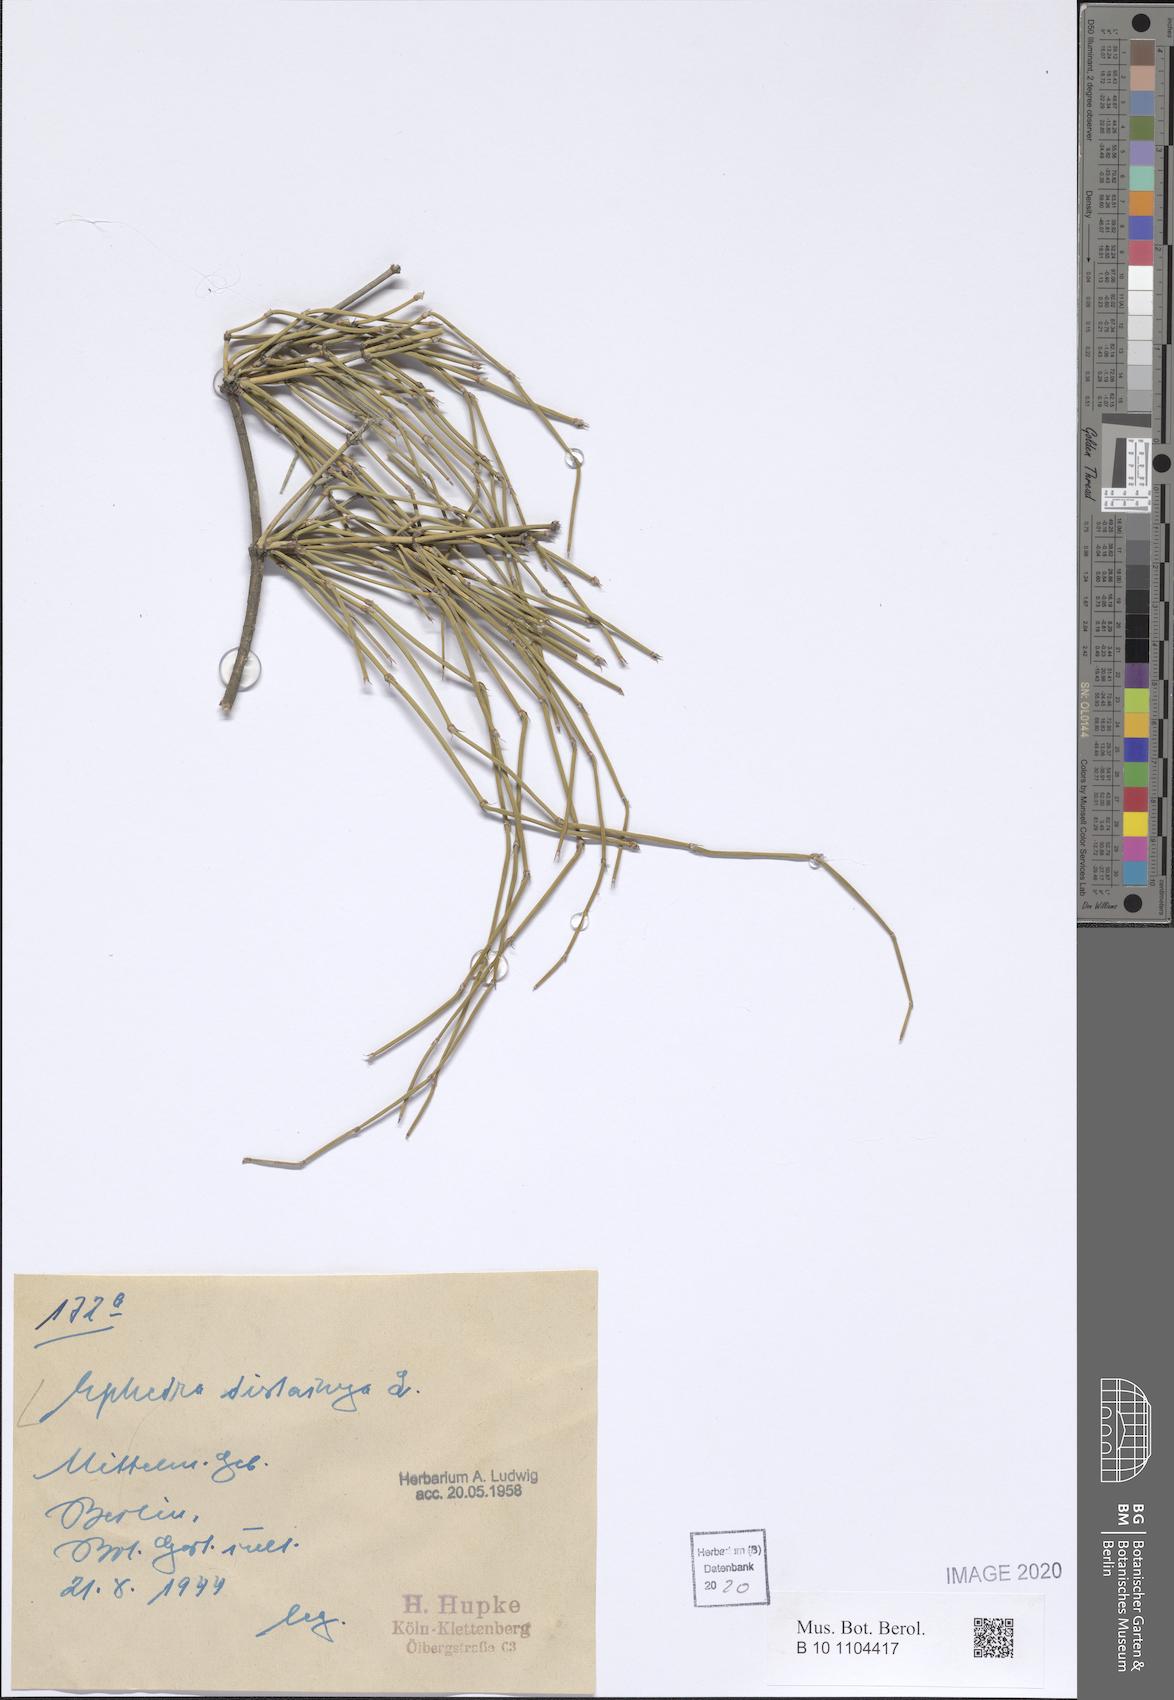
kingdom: Plantae
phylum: Tracheophyta
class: Gnetopsida
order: Ephedrales
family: Ephedraceae
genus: Ephedra
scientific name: Ephedra distachya
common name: Sea grape
